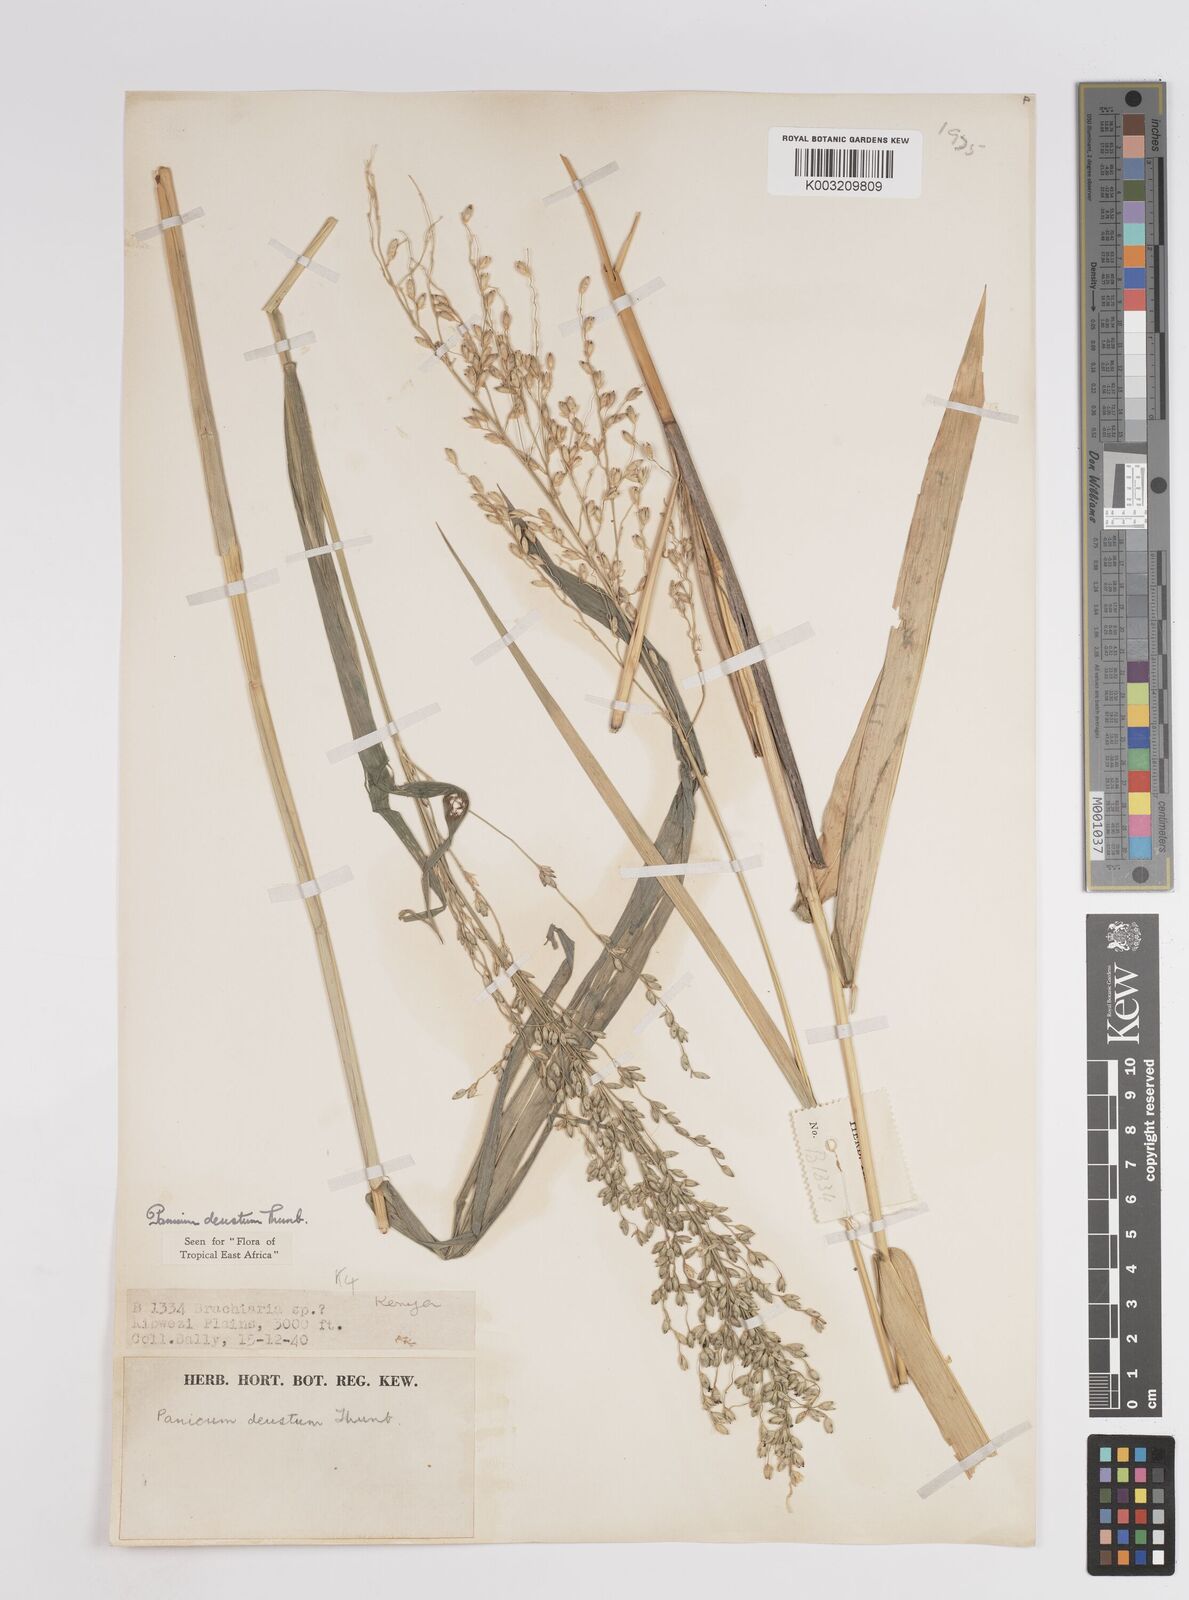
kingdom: Plantae
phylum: Tracheophyta
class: Liliopsida
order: Poales
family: Poaceae
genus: Panicum
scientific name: Panicum deustum
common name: Reed panicum
